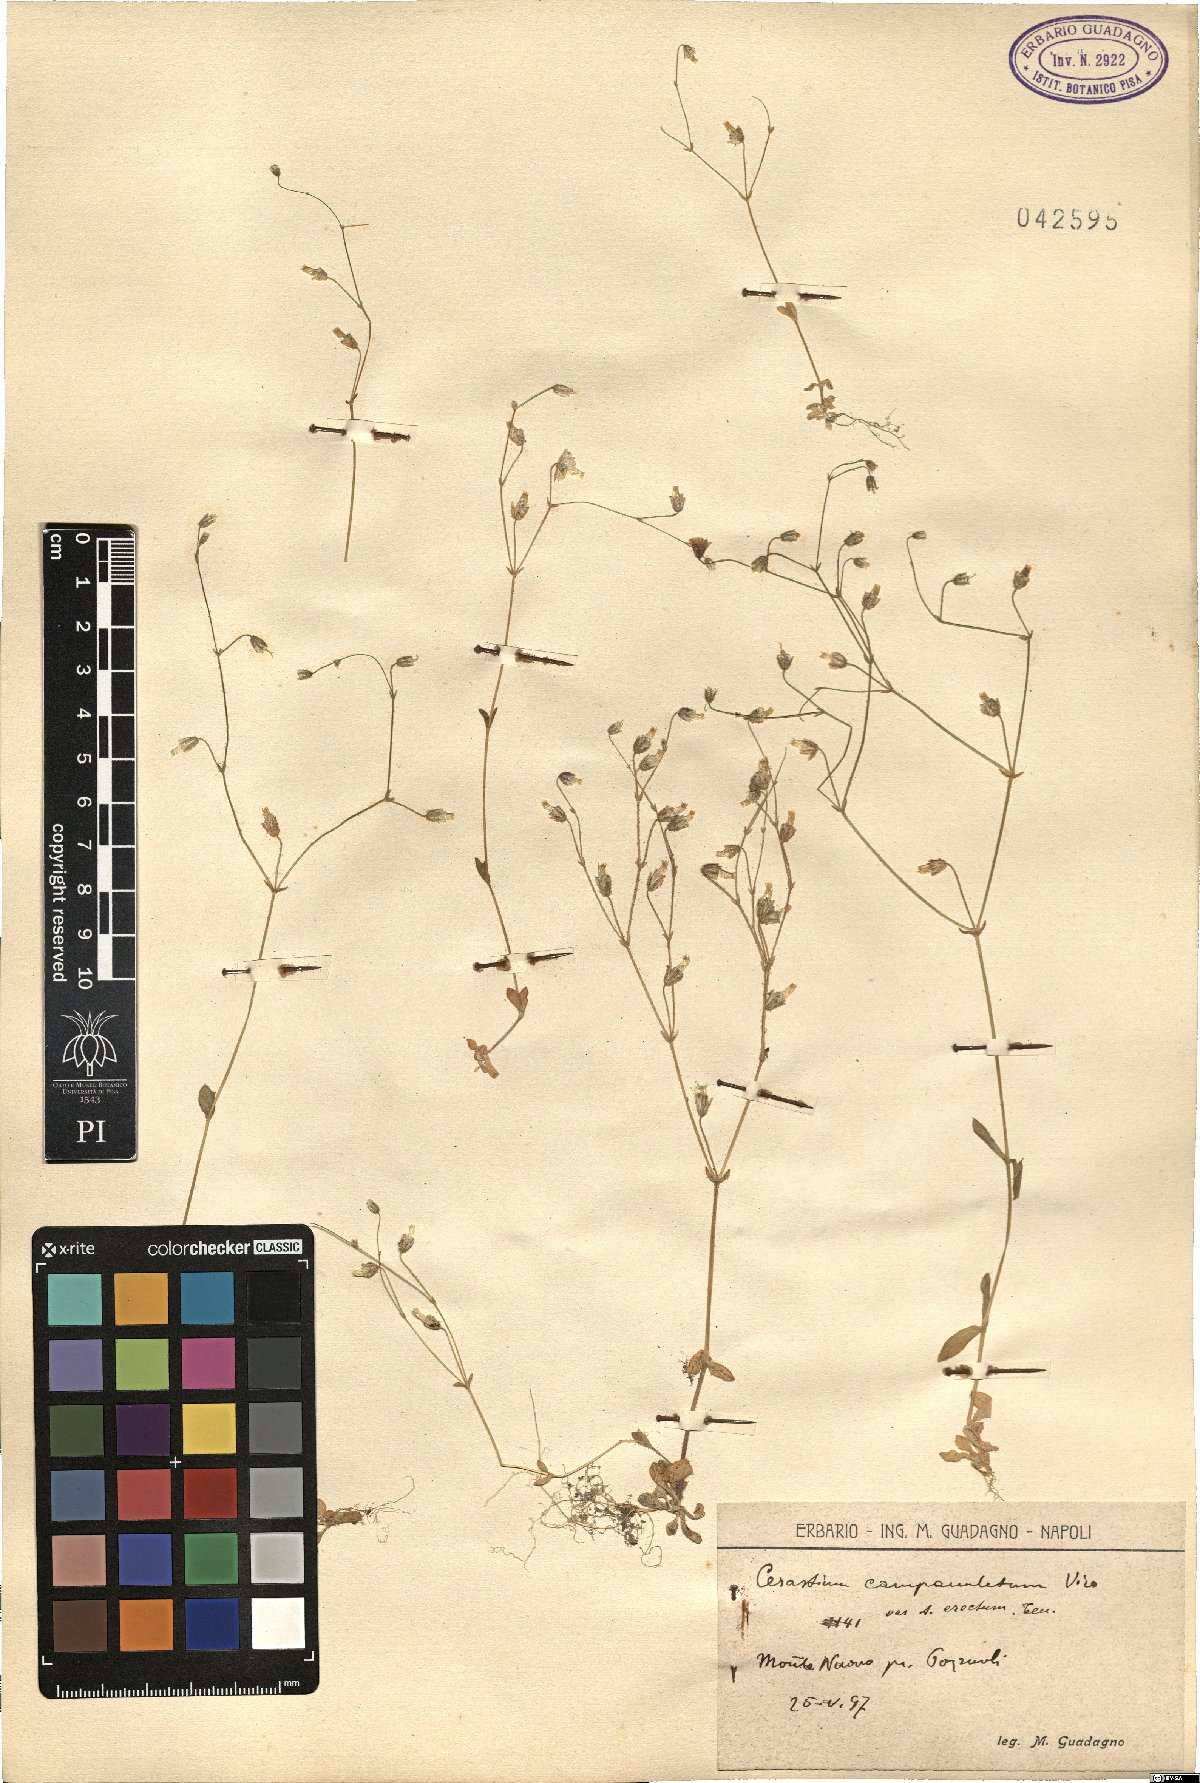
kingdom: Plantae
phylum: Tracheophyta
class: Magnoliopsida
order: Caryophyllales
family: Caryophyllaceae
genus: Cerastium
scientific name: Cerastium ligusticum
